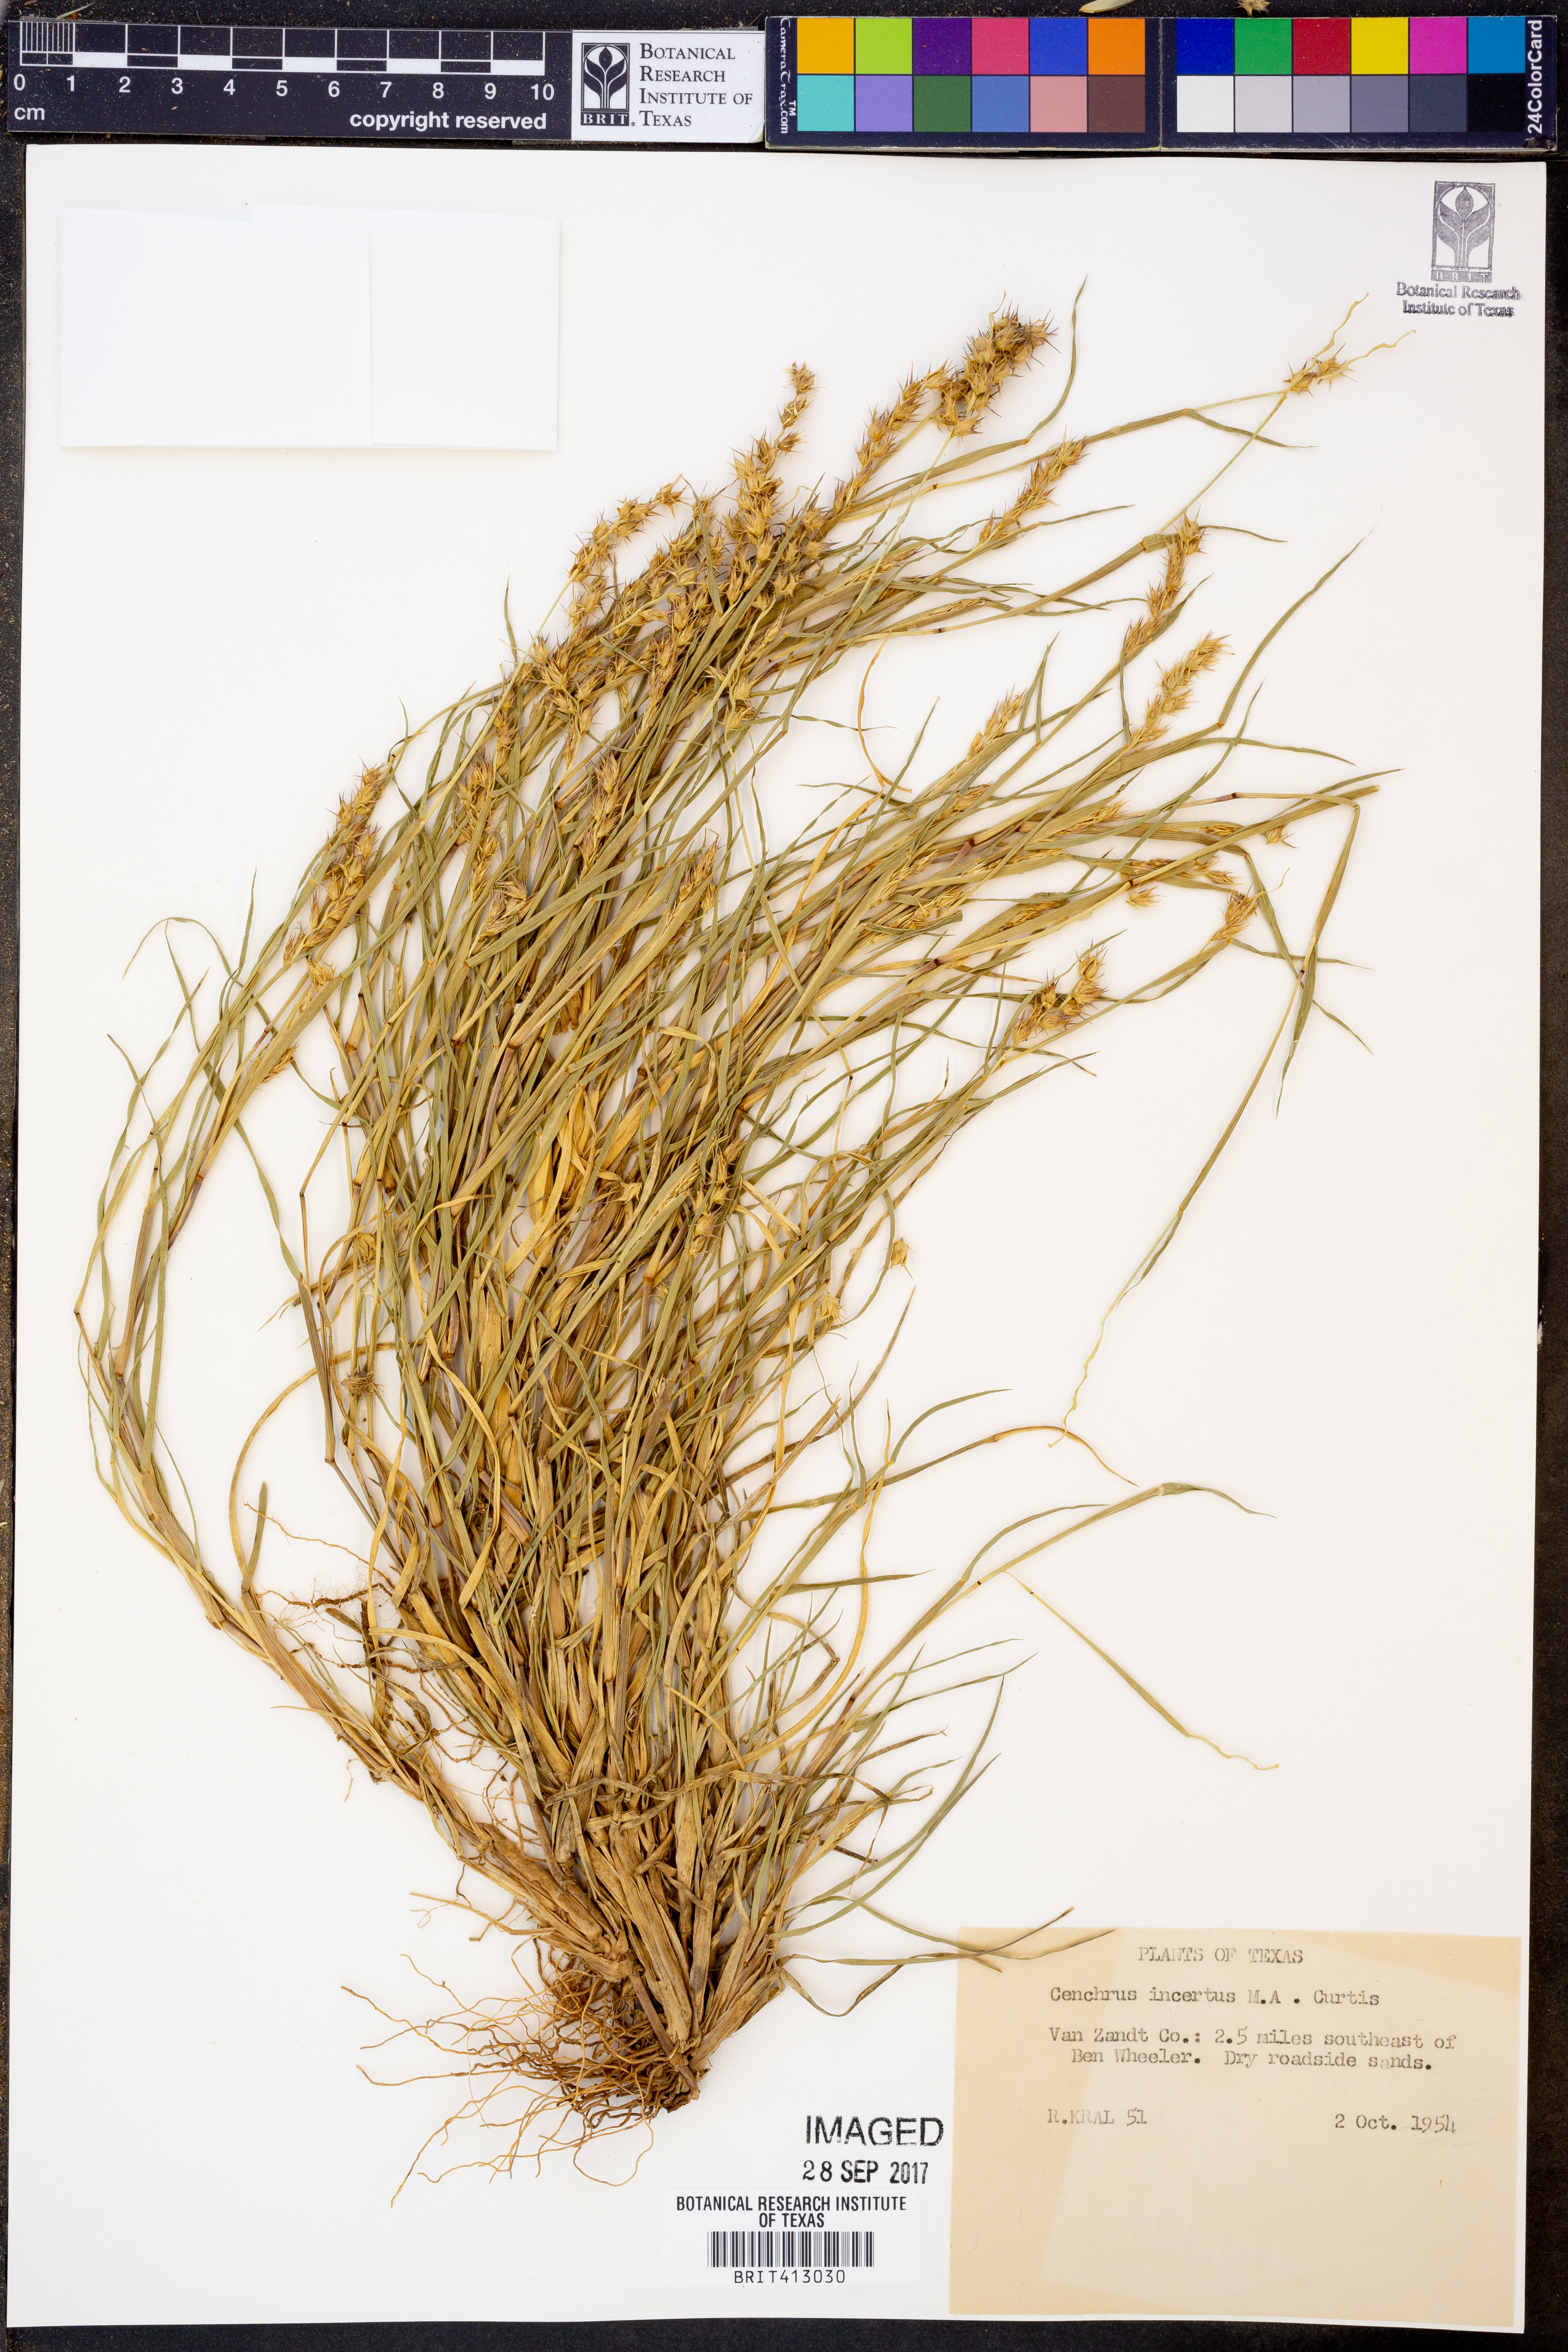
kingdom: Plantae
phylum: Tracheophyta
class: Liliopsida
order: Poales
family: Poaceae
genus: Cenchrus
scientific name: Cenchrus spinifex
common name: Coast sandbur
